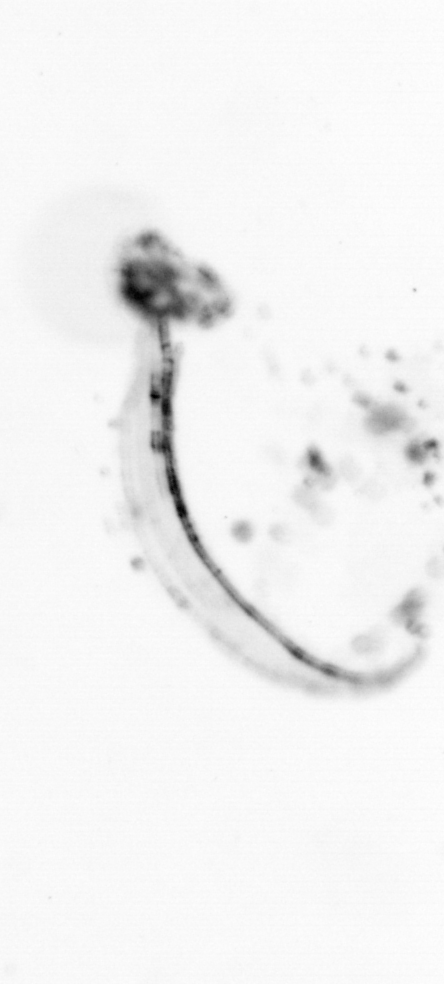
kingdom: Animalia
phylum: Chordata
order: Copelata
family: Fritillariidae
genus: Appendicularia
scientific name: Appendicularia
